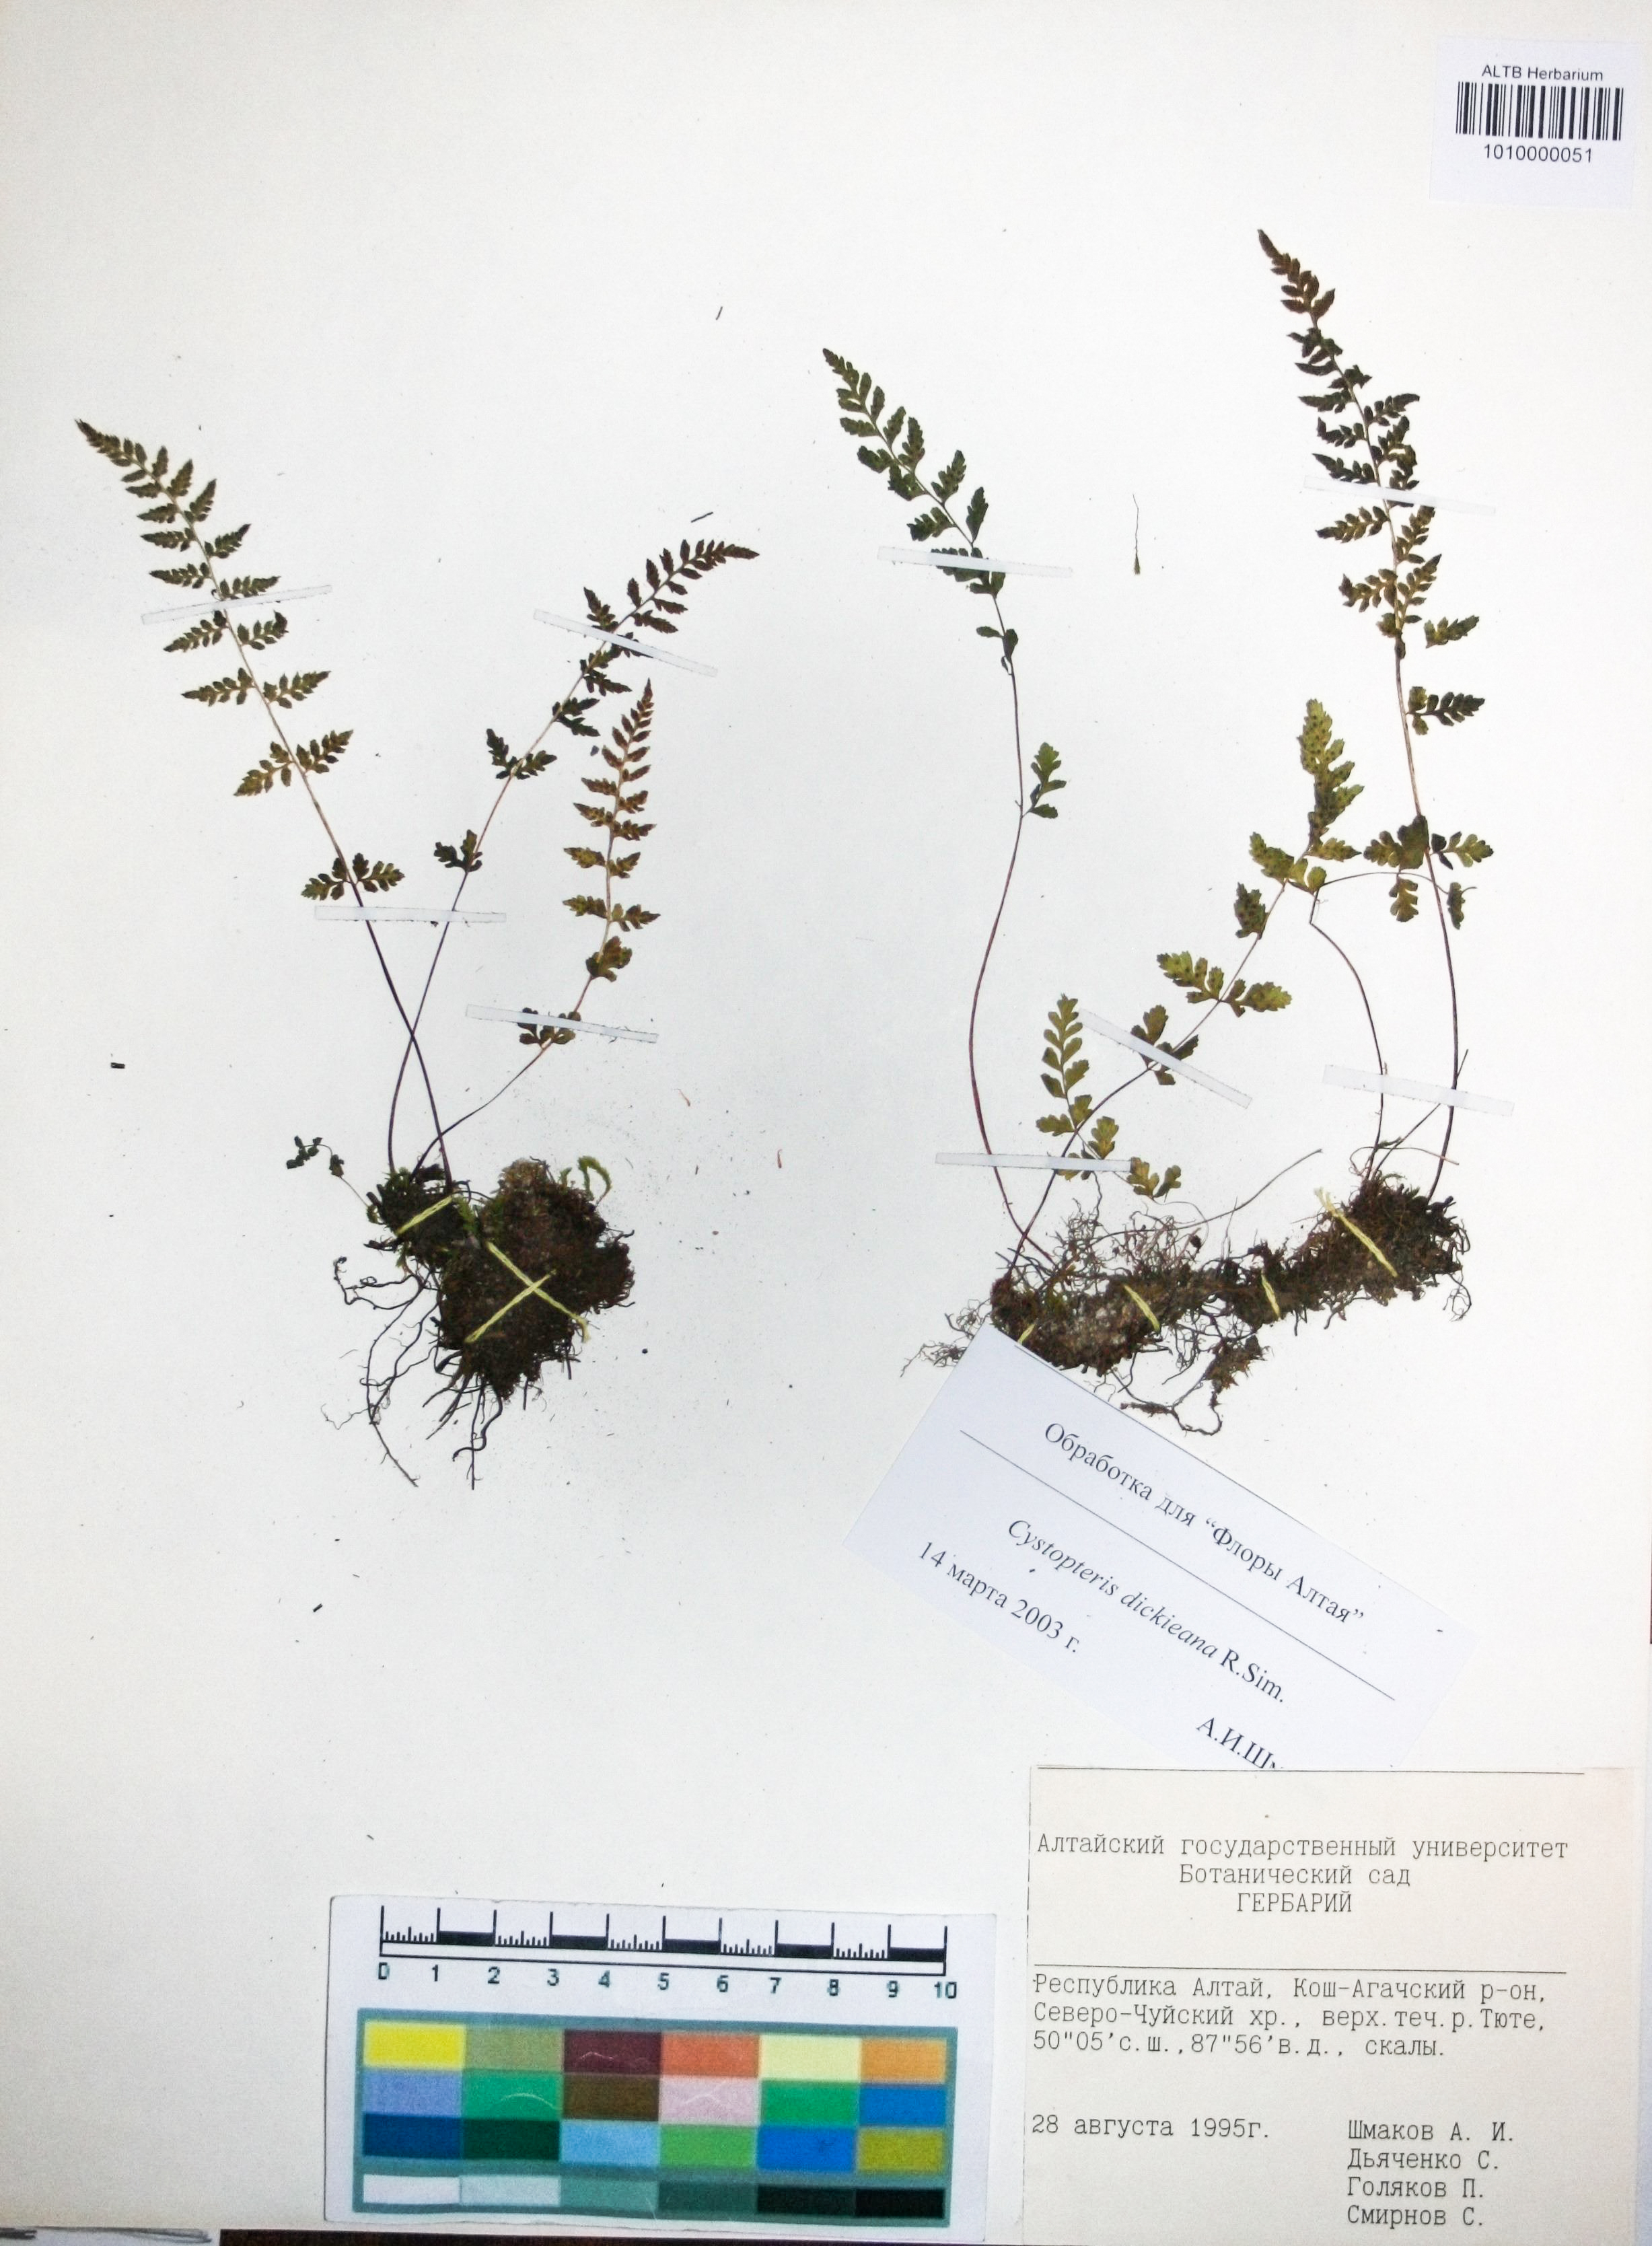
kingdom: Plantae
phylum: Tracheophyta
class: Polypodiopsida
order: Polypodiales
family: Cystopteridaceae
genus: Cystopteris
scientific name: Cystopteris dickieana
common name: Dickie's bladder-fern
